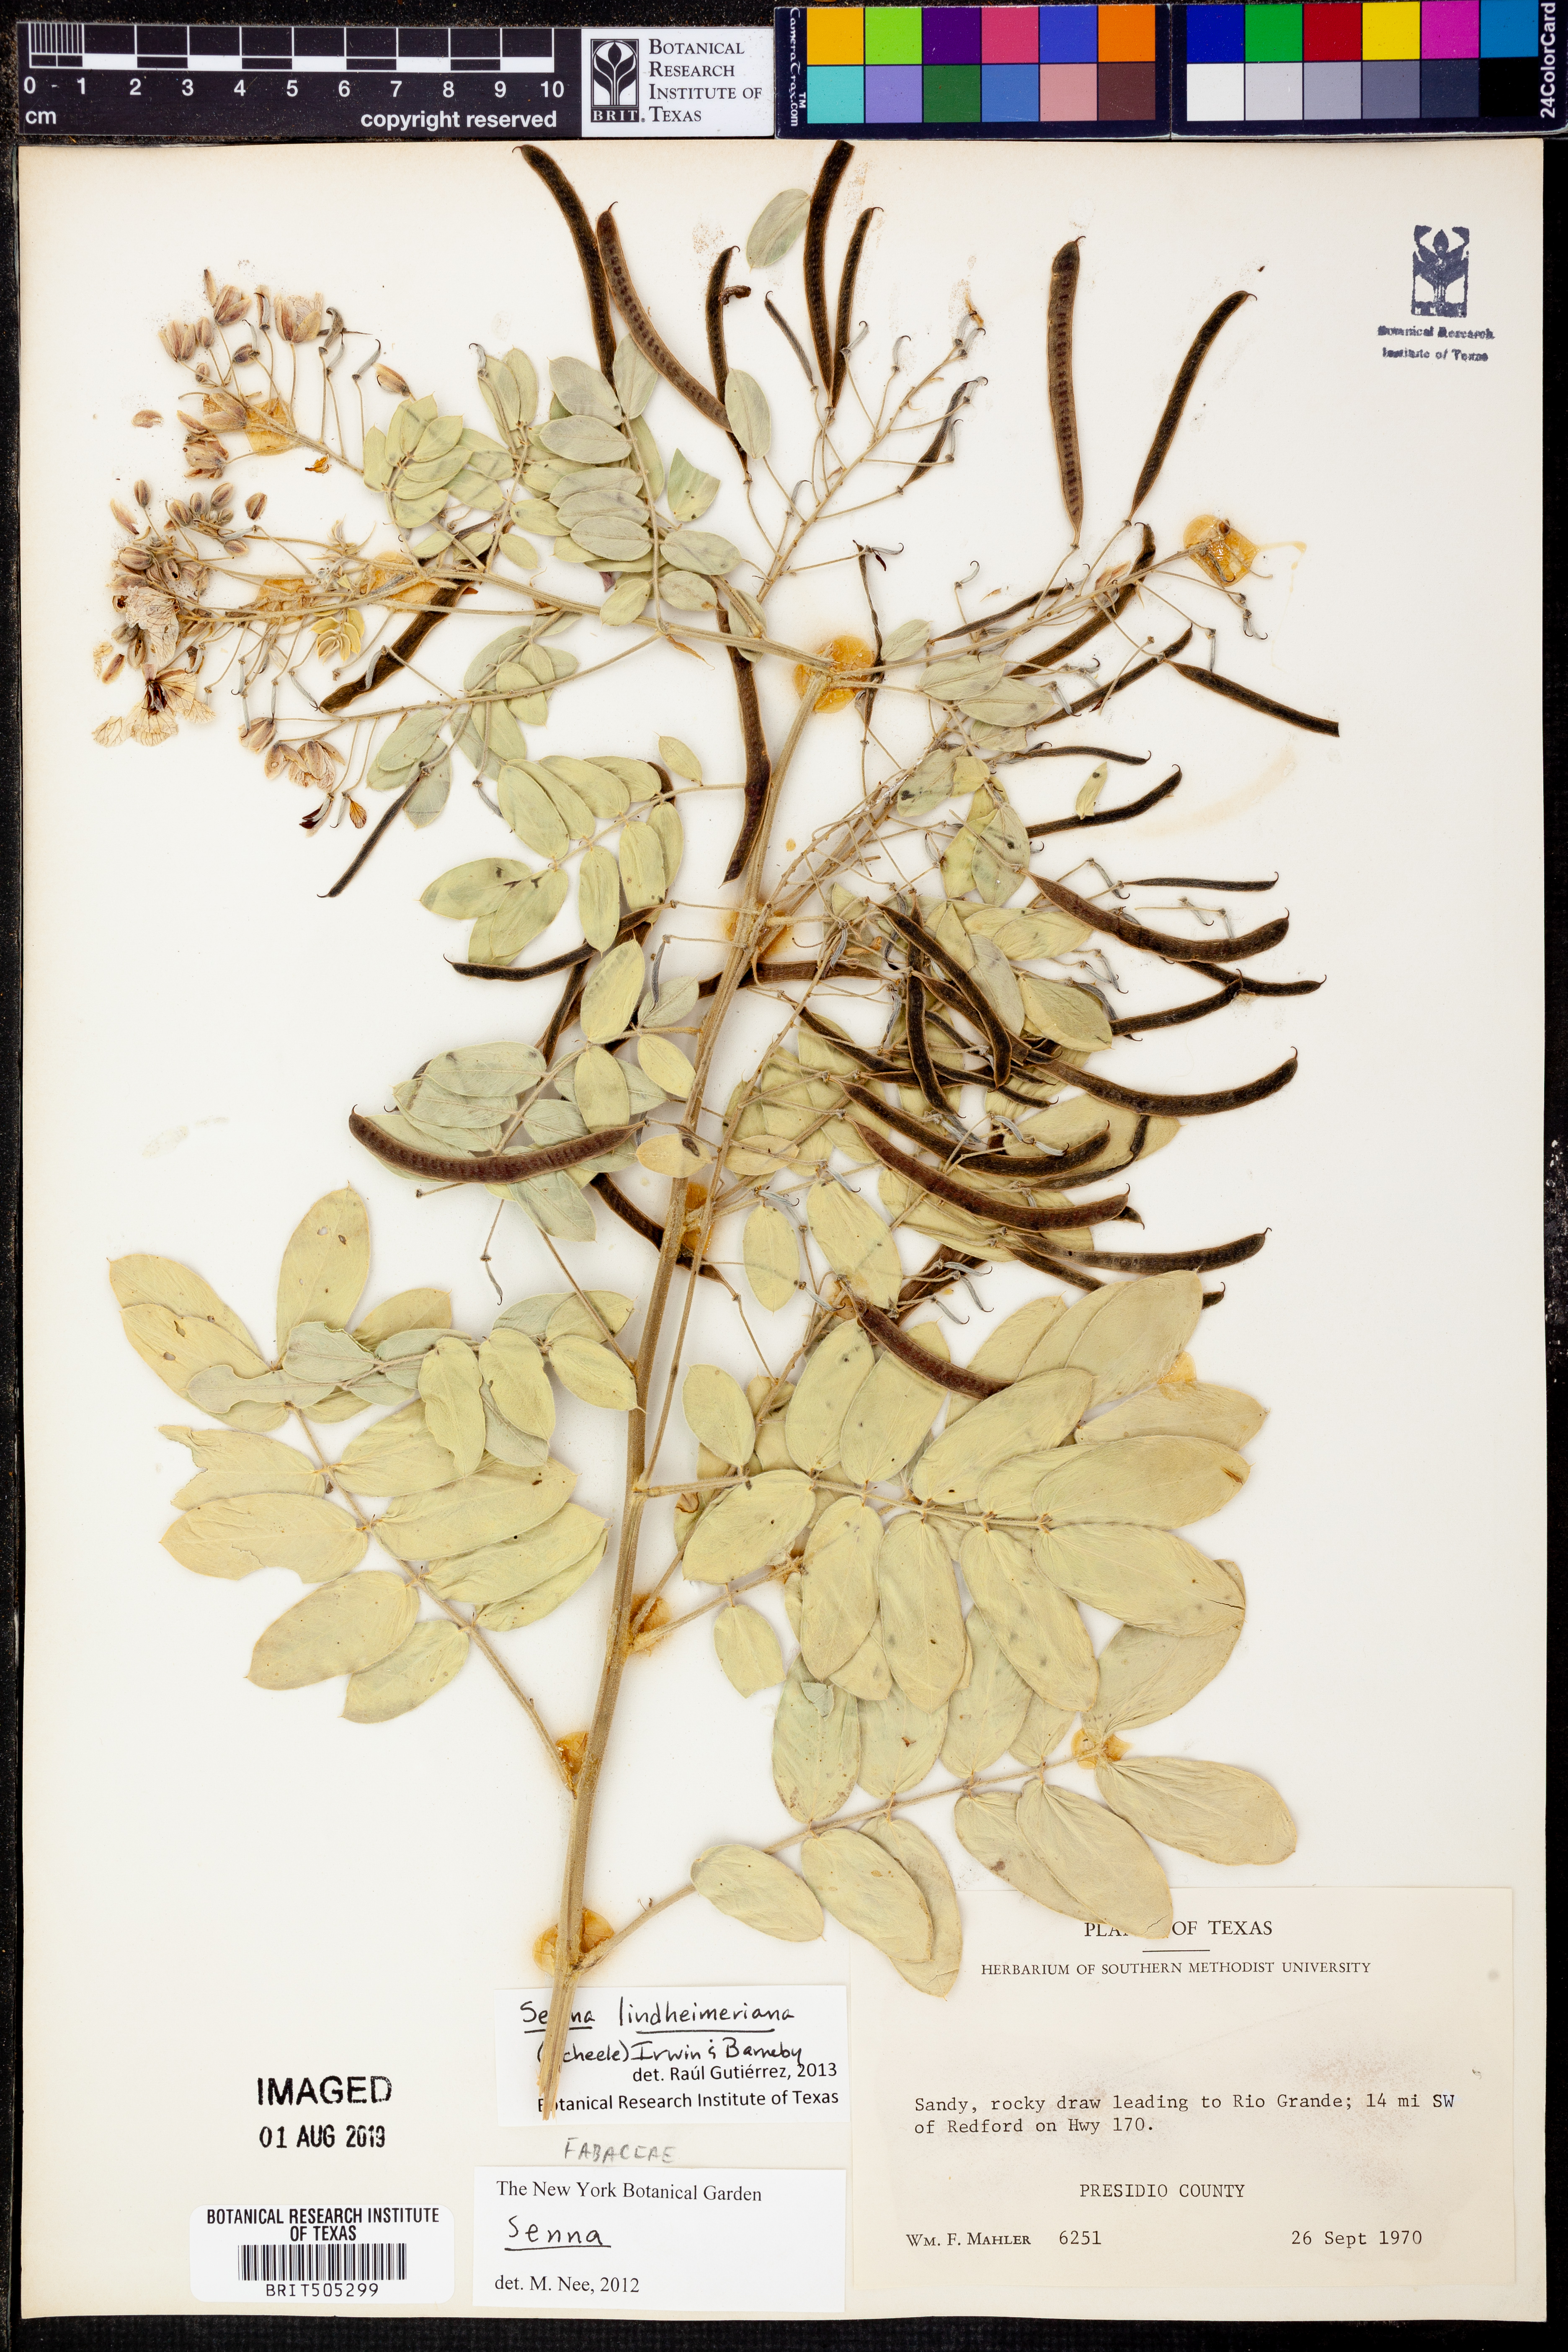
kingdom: Plantae
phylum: Tracheophyta
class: Magnoliopsida
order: Fabales
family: Fabaceae
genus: Senna
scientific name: Senna lindheimeriana
